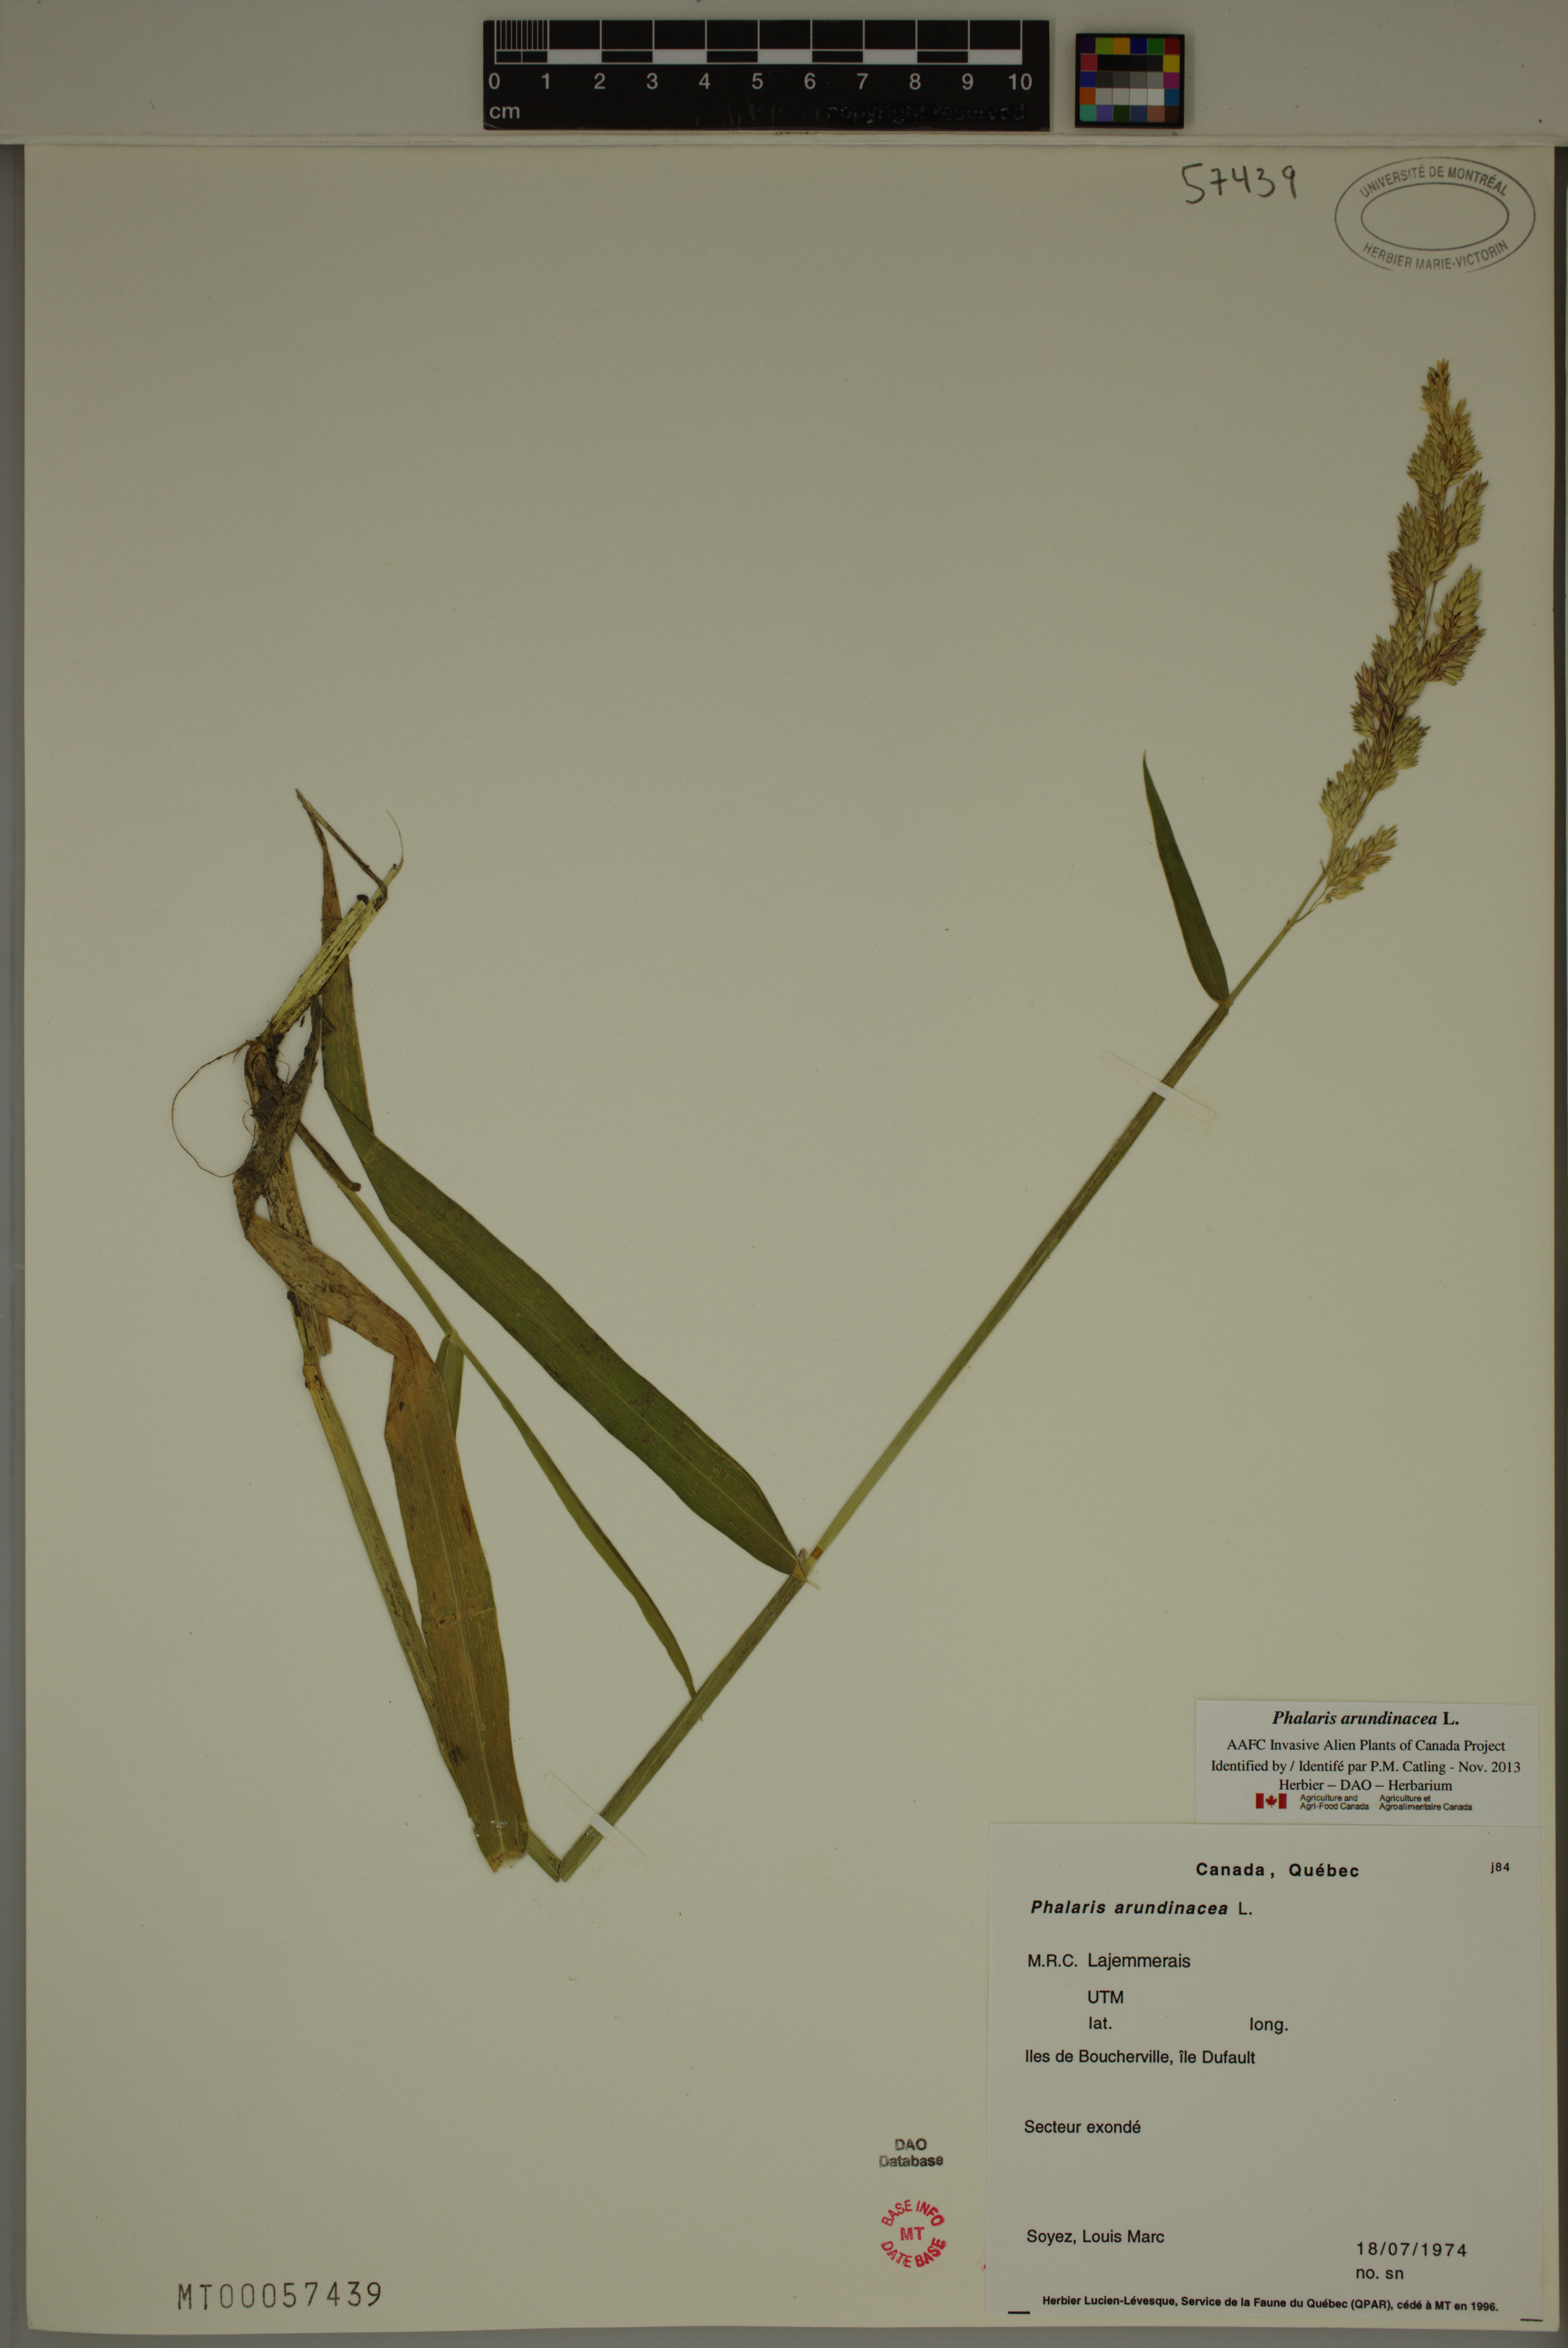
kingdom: Plantae
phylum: Tracheophyta
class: Liliopsida
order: Poales
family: Poaceae
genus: Phalaris
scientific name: Phalaris arundinacea
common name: Reed canary-grass
